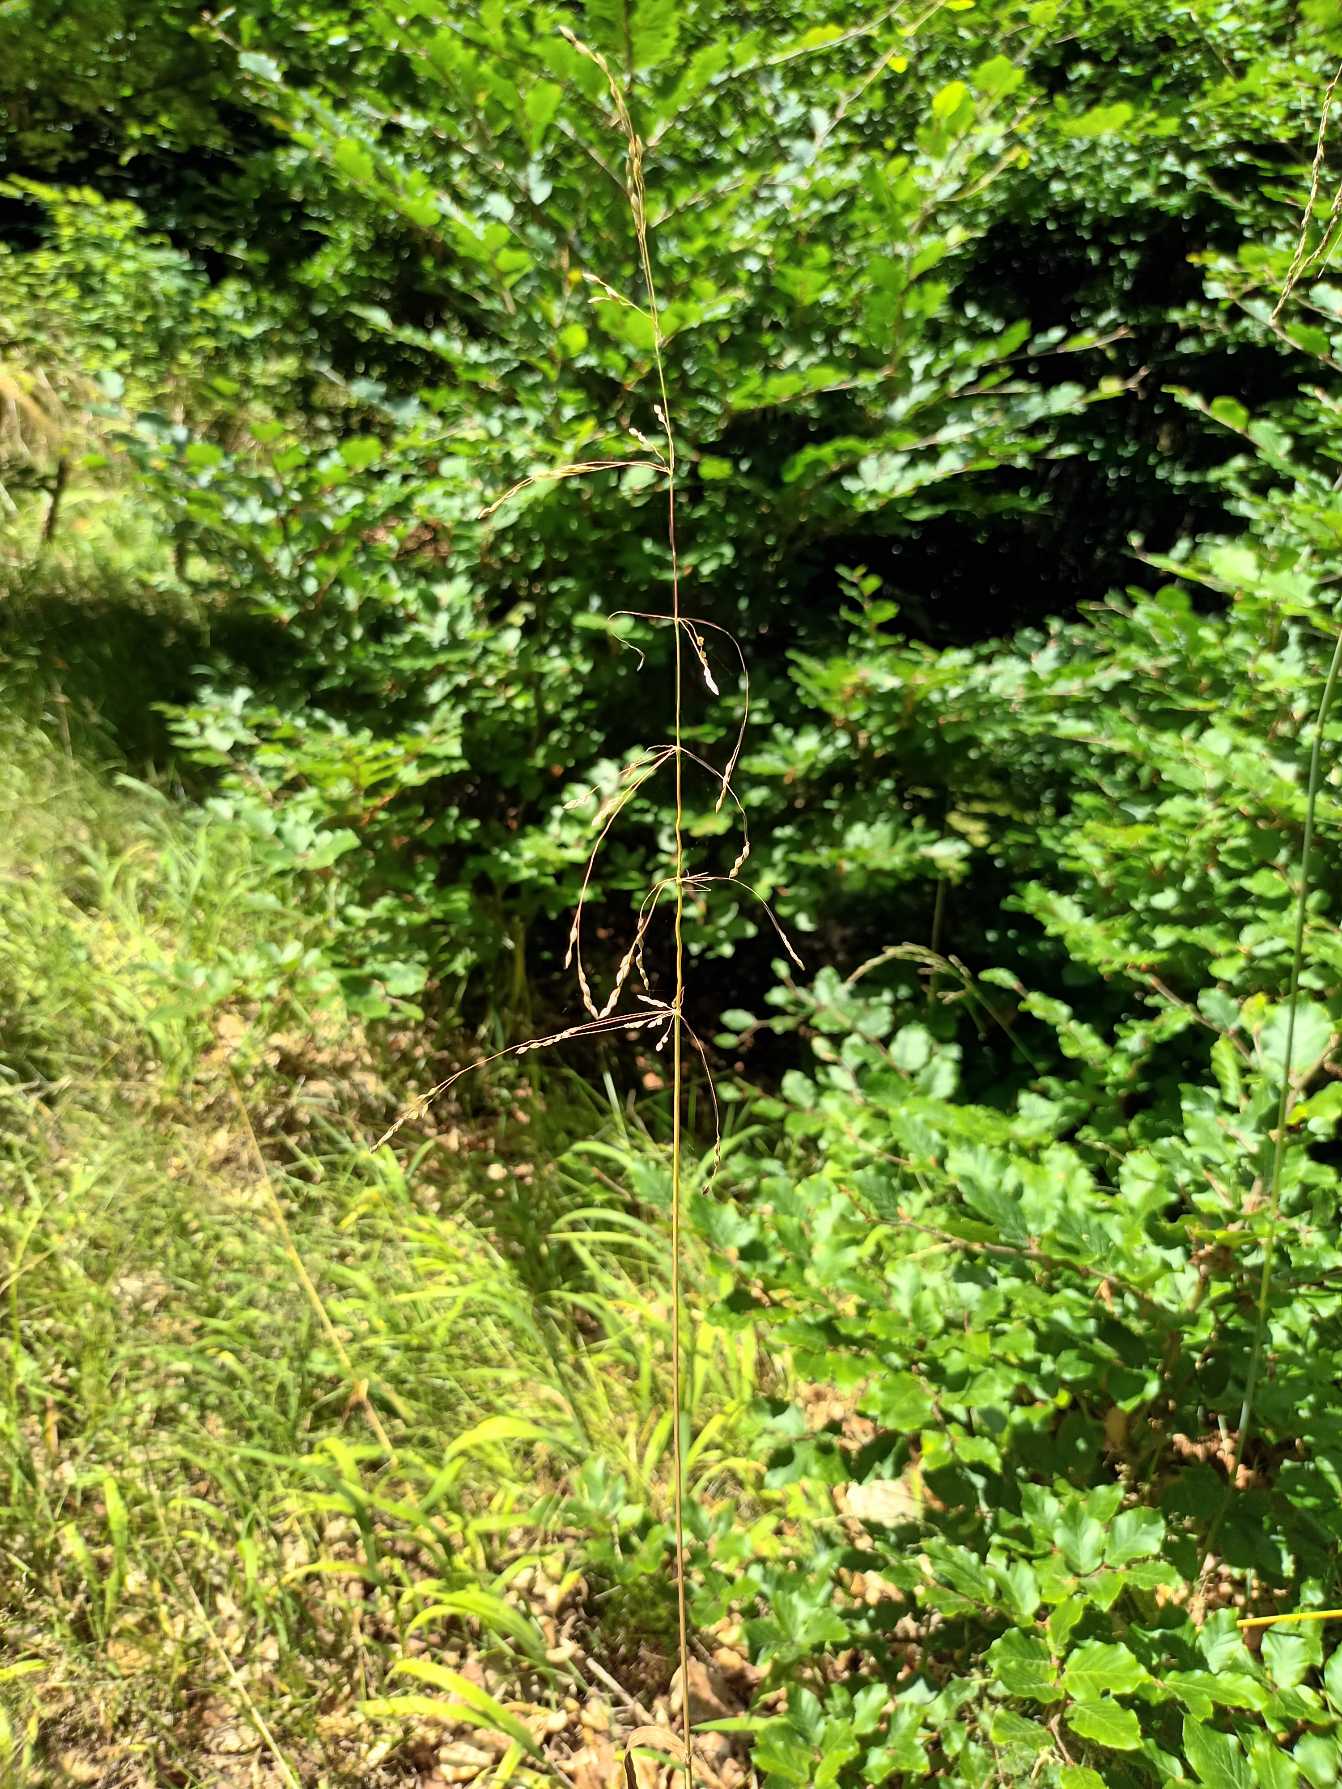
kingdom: Plantae
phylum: Tracheophyta
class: Liliopsida
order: Poales
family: Poaceae
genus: Milium
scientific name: Milium effusum
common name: Miliegræs
